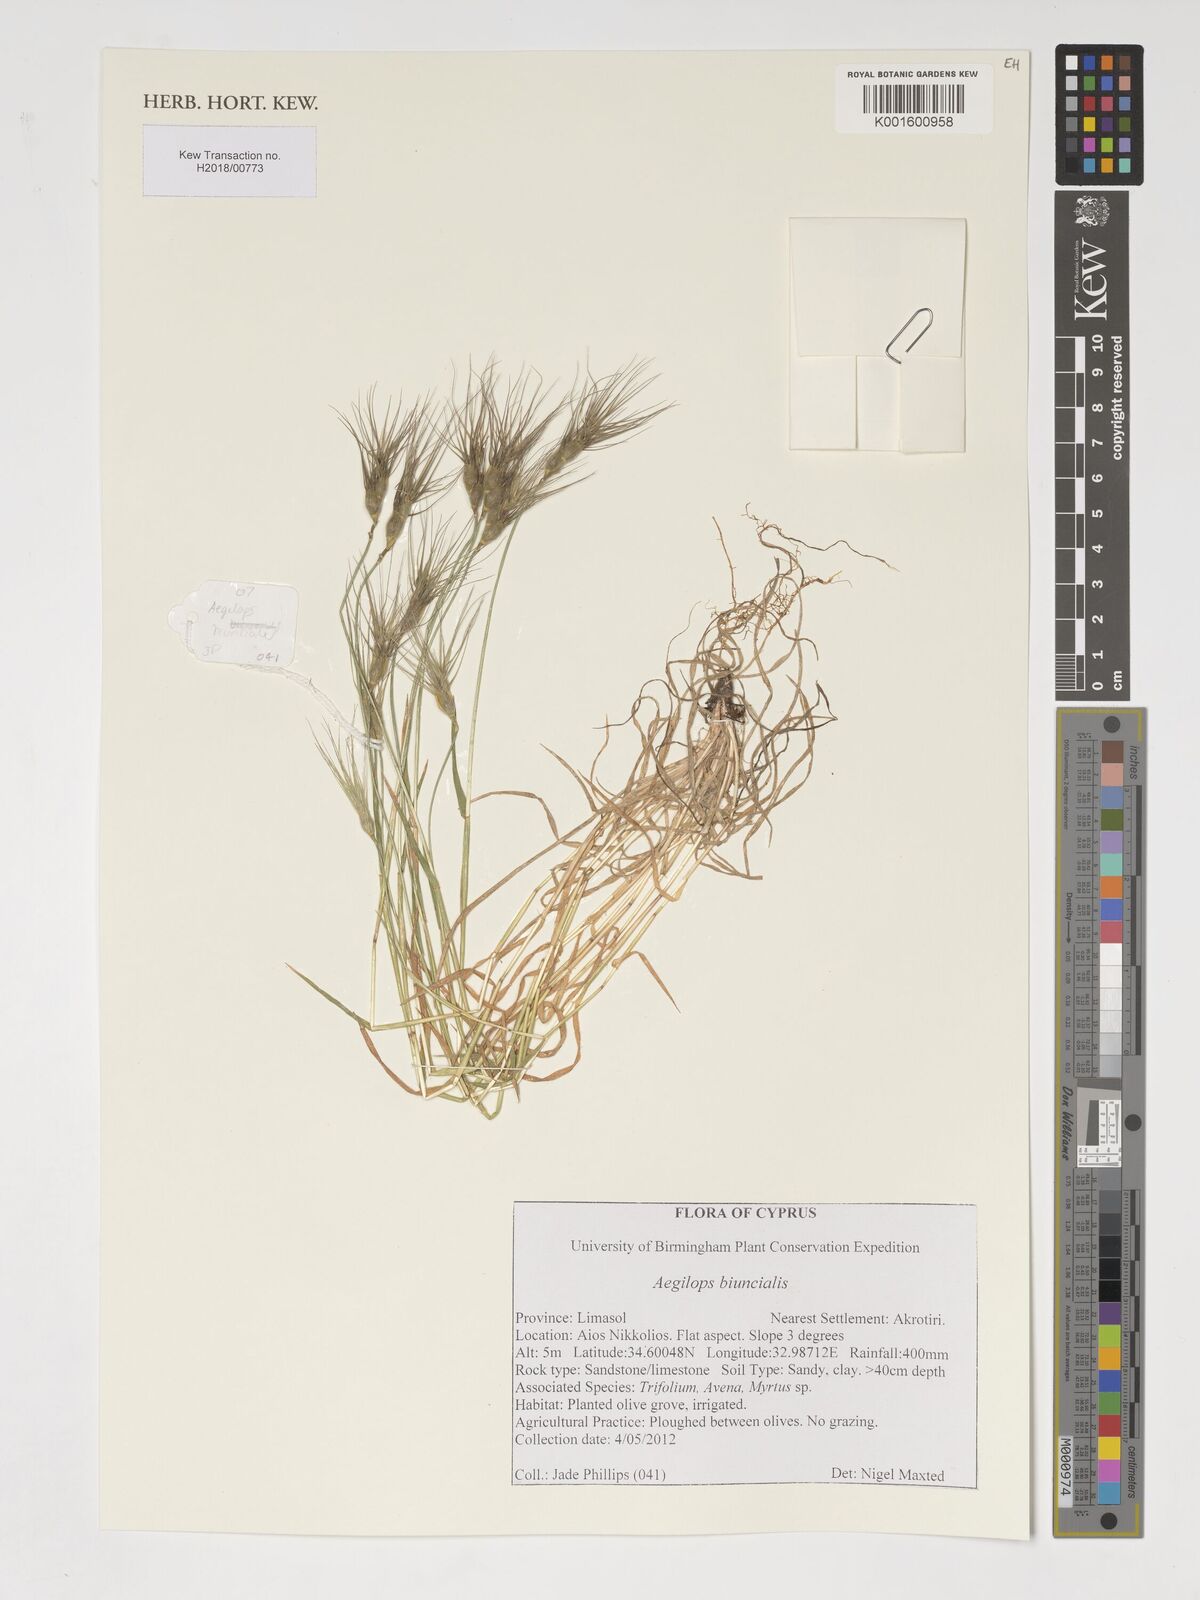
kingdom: Plantae
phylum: Tracheophyta
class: Liliopsida
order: Poales
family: Poaceae
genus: Aegilops
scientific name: Aegilops biuncialis
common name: Mediterranean aegilops
